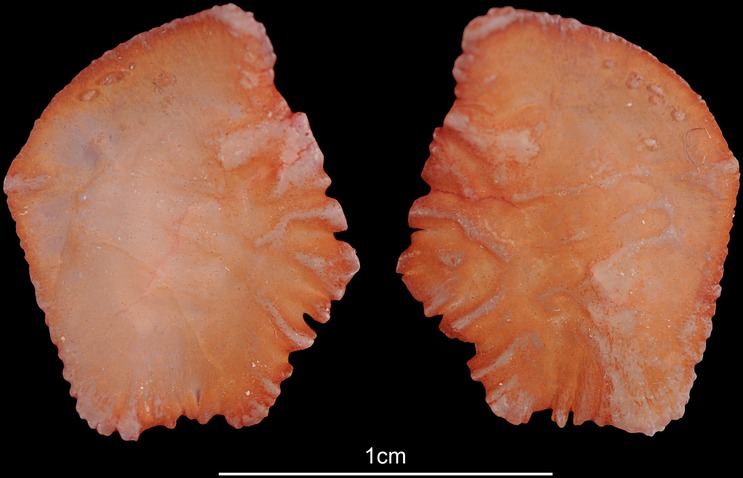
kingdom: Animalia
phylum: Chordata
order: Perciformes
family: Sparidae
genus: Pterogymnus
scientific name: Pterogymnus laniarius
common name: Panga
